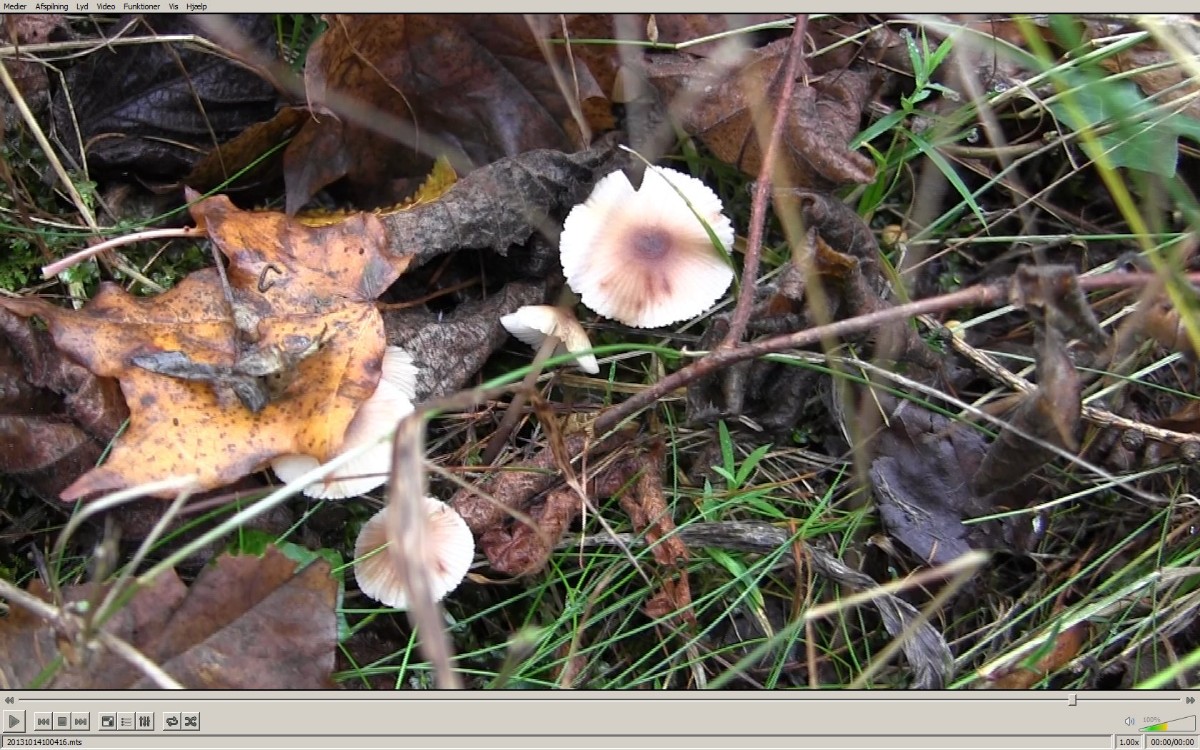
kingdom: Fungi
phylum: Basidiomycota
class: Agaricomycetes
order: Agaricales
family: Mycenaceae
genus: Mycena
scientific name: Mycena zephirus
